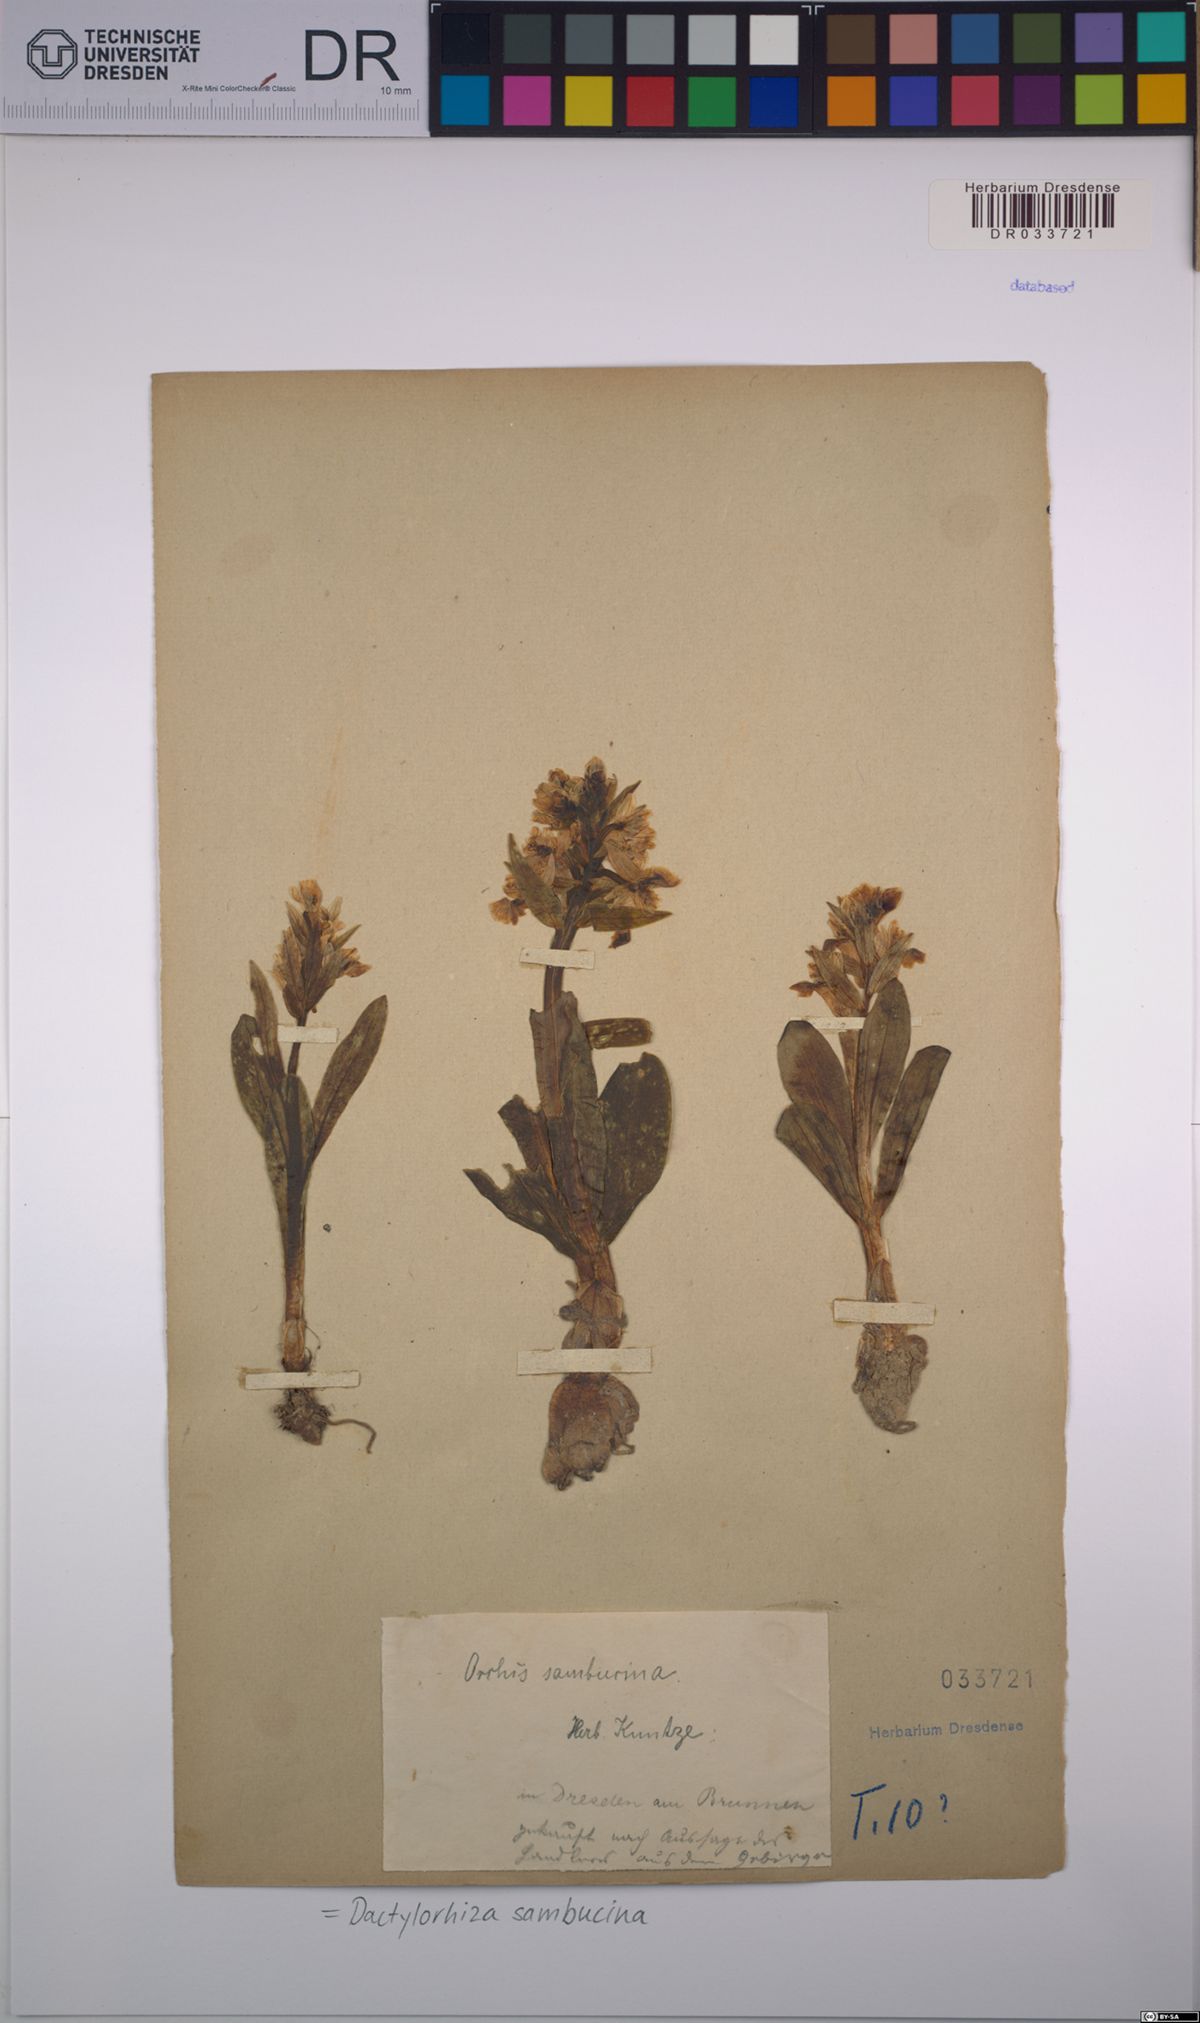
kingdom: Plantae
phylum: Tracheophyta
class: Liliopsida
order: Asparagales
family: Orchidaceae
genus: Dactylorhiza
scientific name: Dactylorhiza sambucina
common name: Elder-flowered orchid
